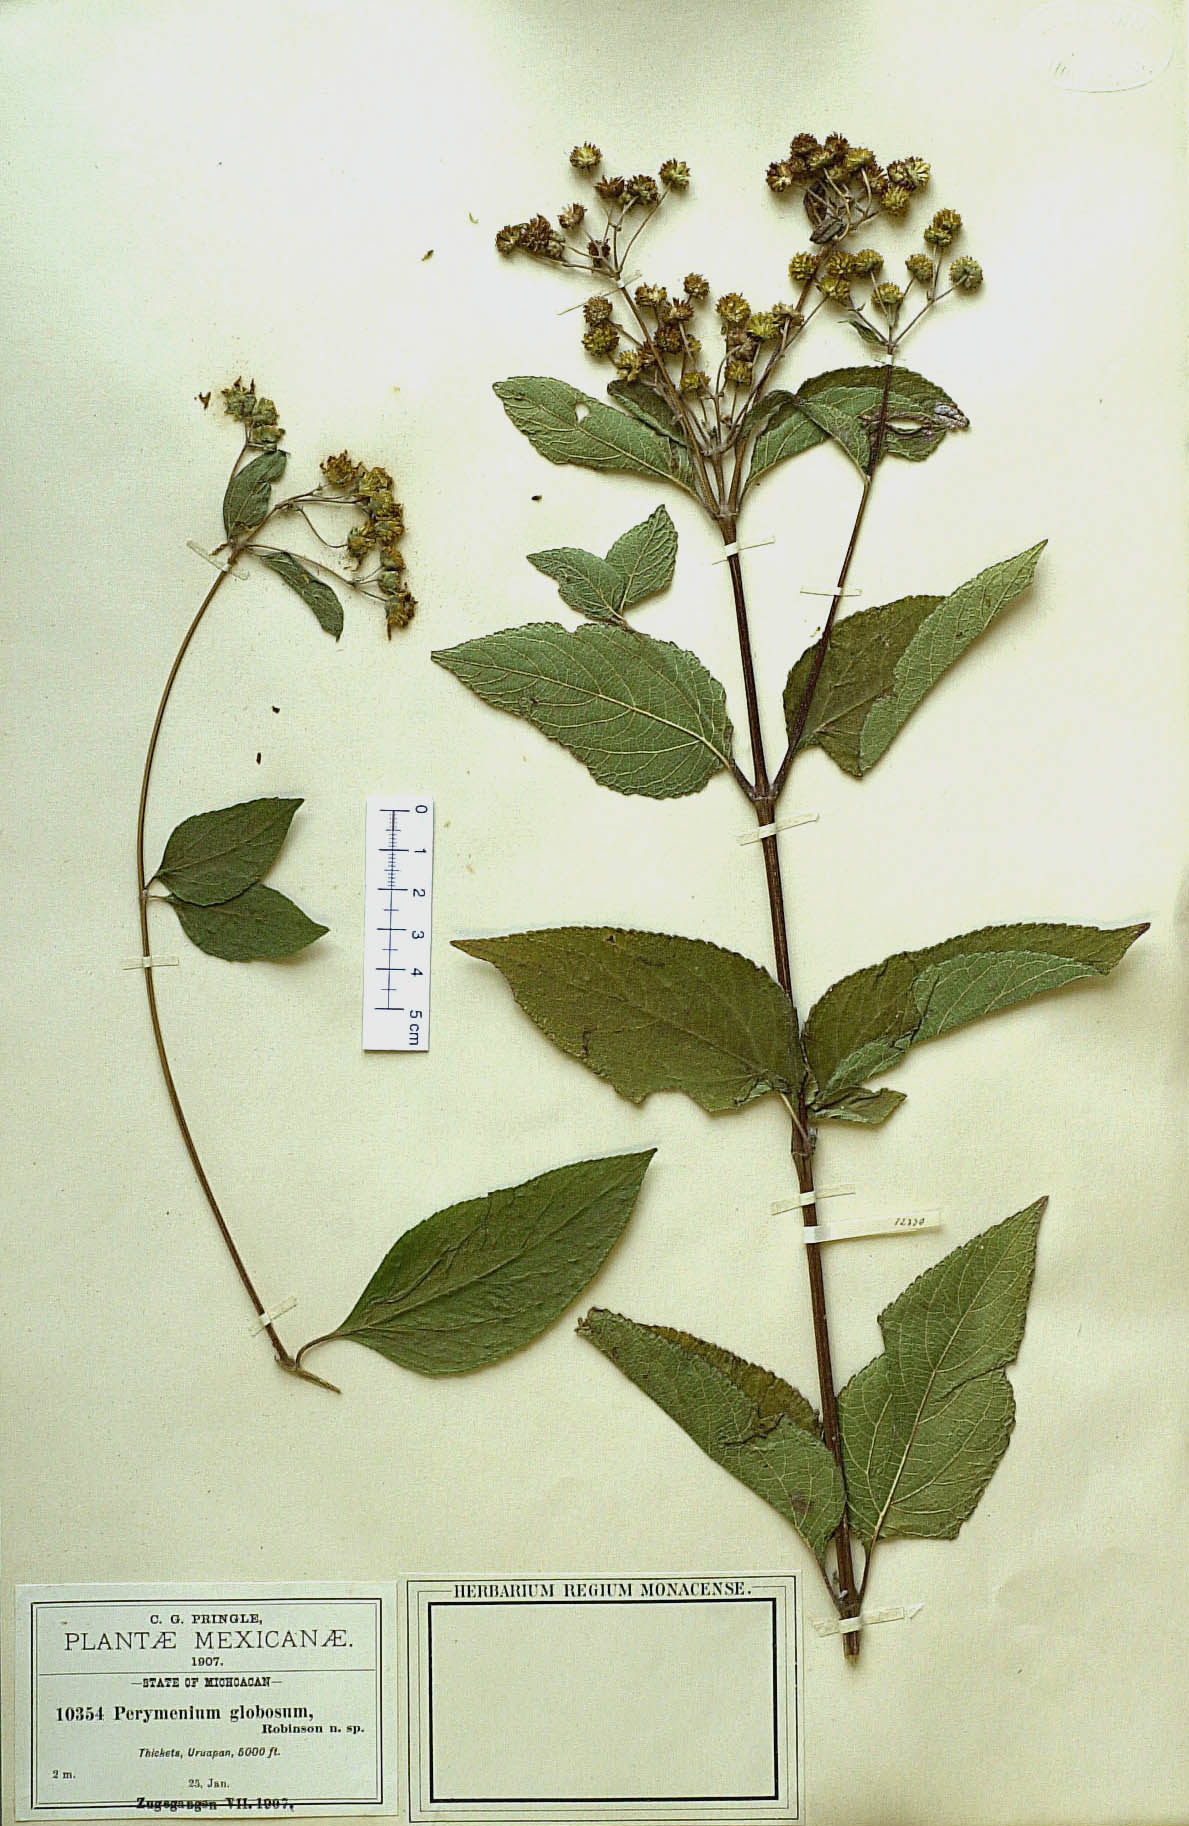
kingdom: Plantae
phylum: Tracheophyta
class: Magnoliopsida
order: Asterales
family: Asteraceae
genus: Perymenium
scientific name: Perymenium globosum
